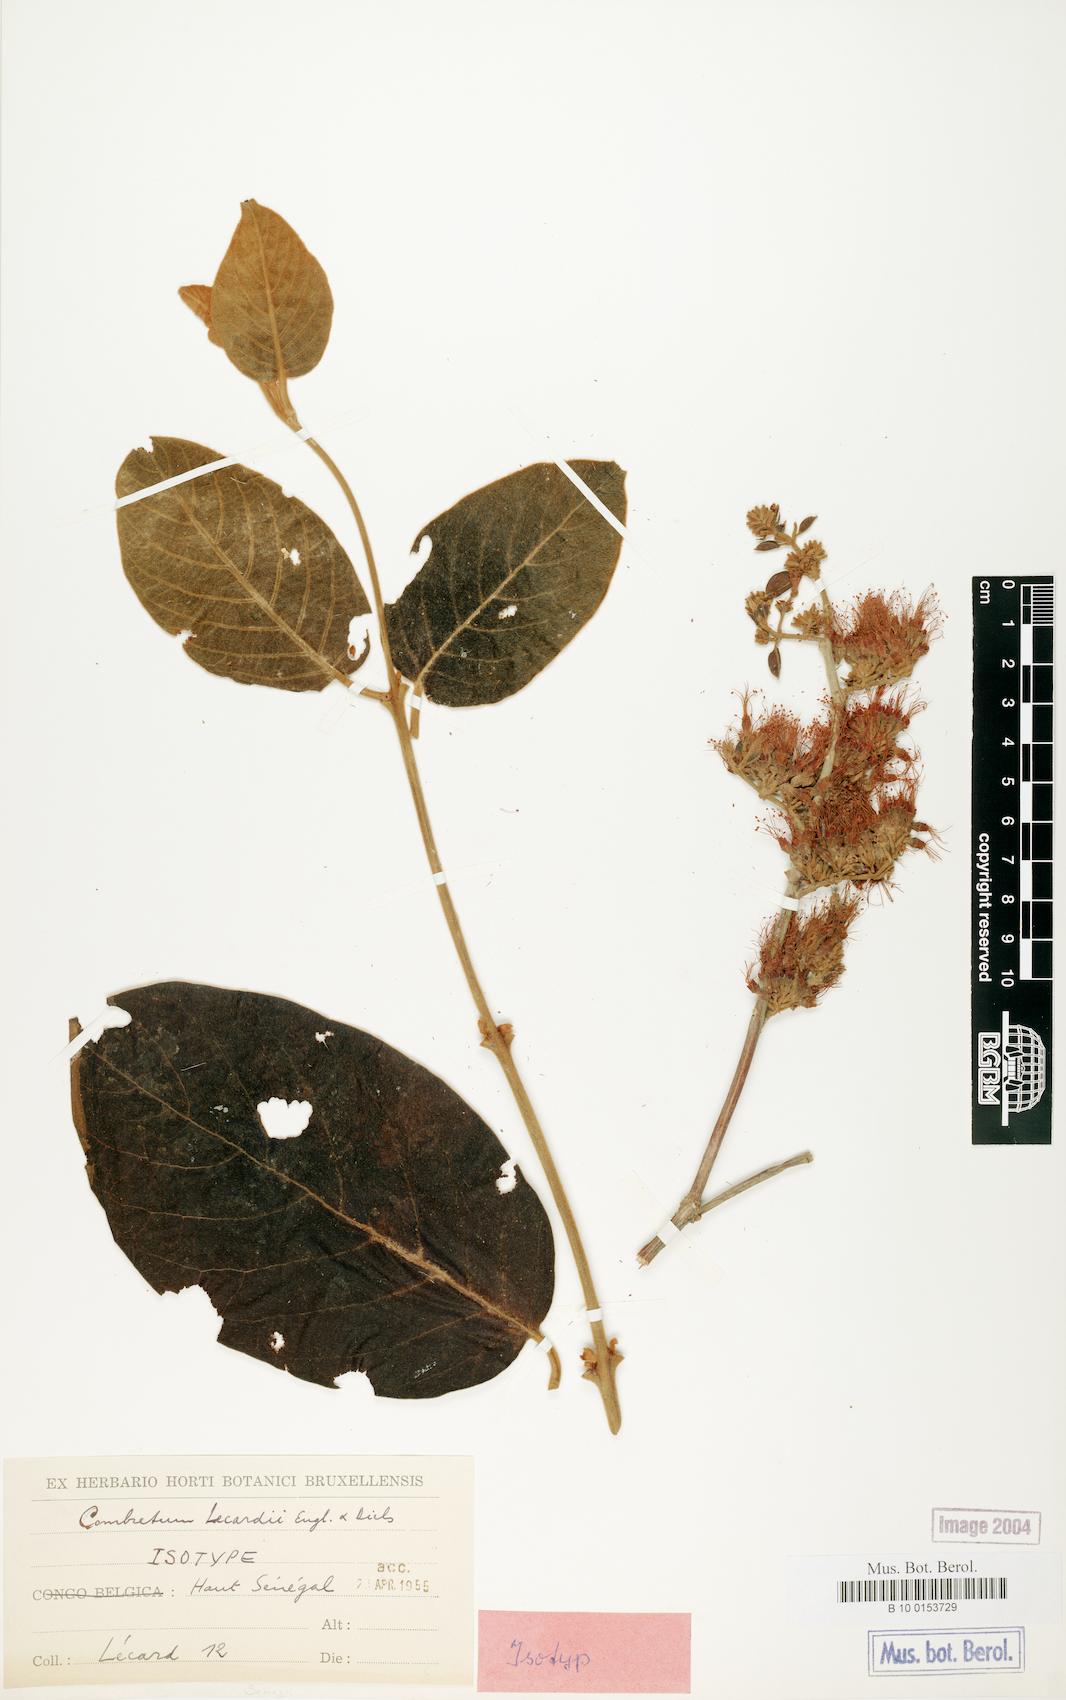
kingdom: Plantae
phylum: Tracheophyta
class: Magnoliopsida
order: Myrtales
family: Combretaceae
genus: Combretum
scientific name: Combretum lecardii
